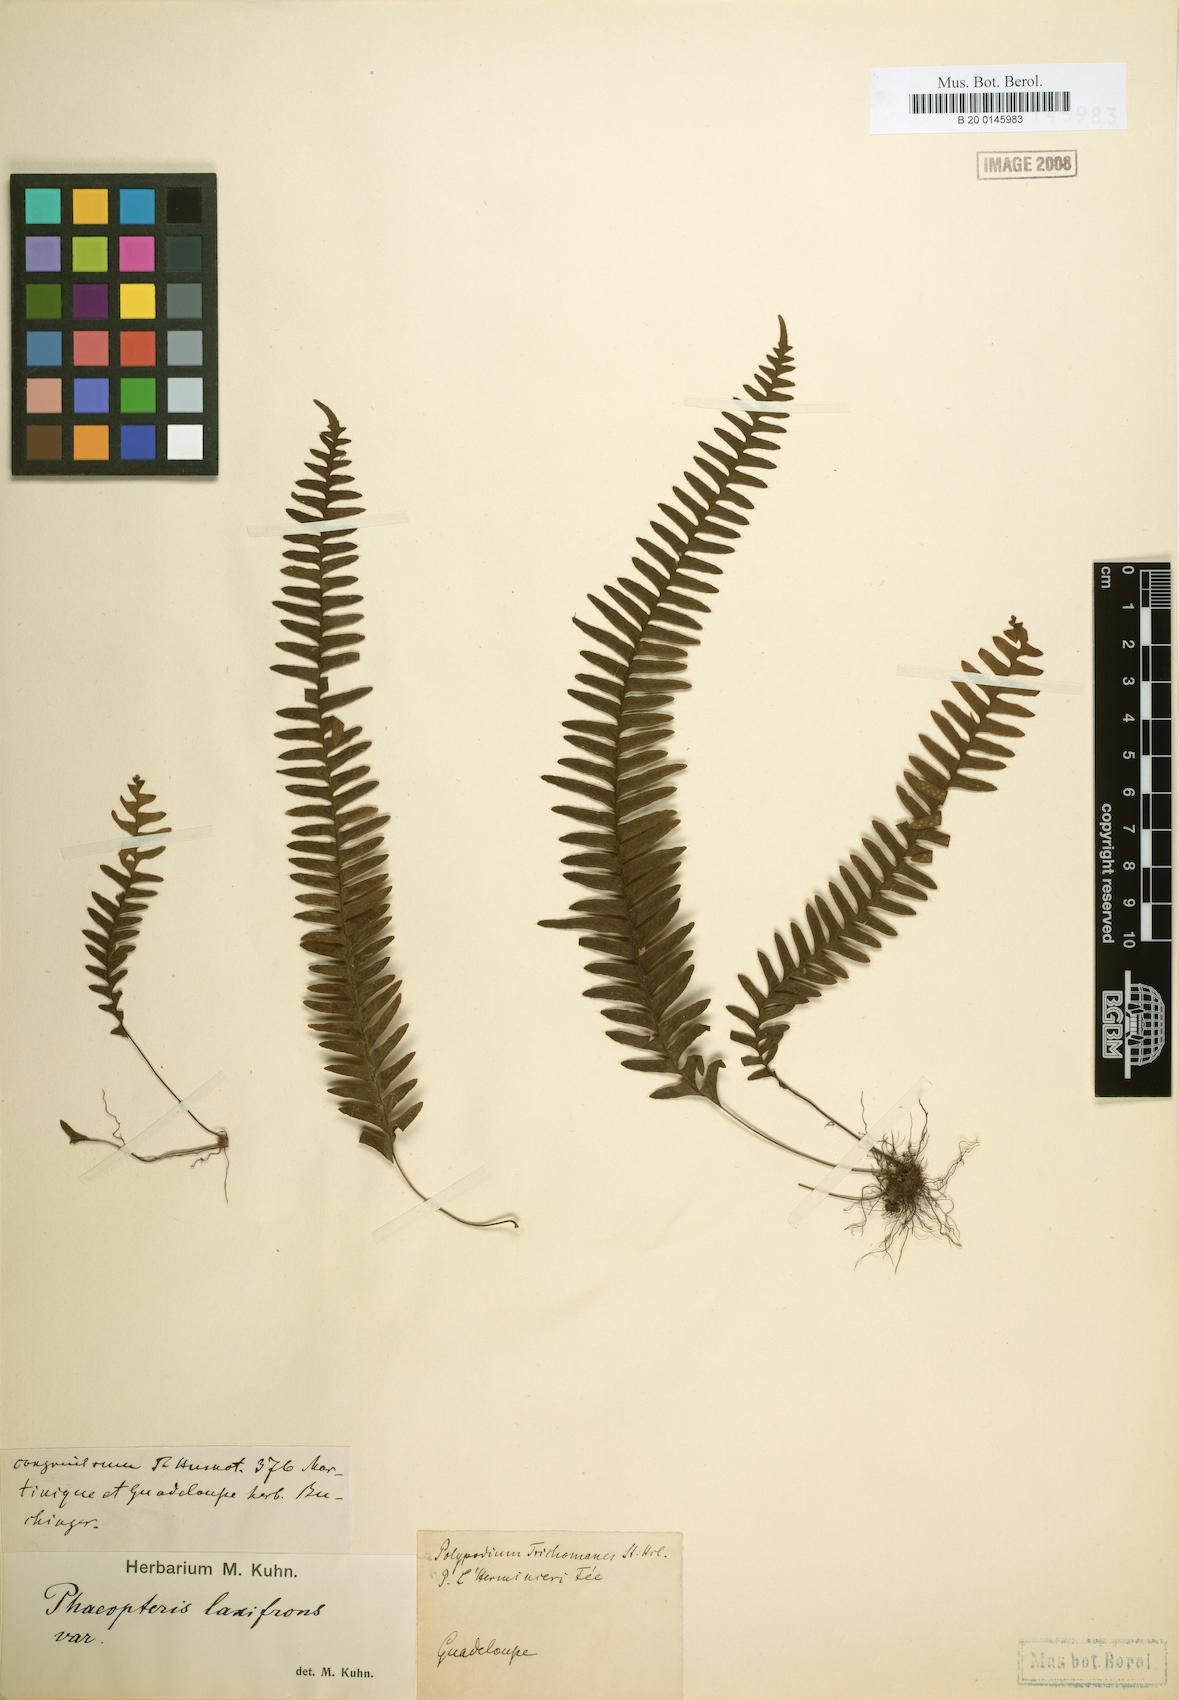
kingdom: Plantae
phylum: Tracheophyta
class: Polypodiopsida
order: Polypodiales
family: Polypodiaceae
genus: Terpsichore
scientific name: Terpsichore asplenifolia
